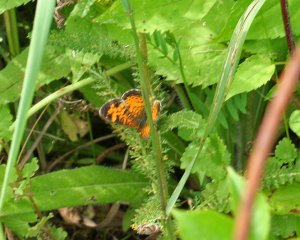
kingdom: Animalia
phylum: Arthropoda
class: Insecta
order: Lepidoptera
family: Nymphalidae
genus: Phyciodes
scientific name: Phyciodes tharos
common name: Northern Crescent
